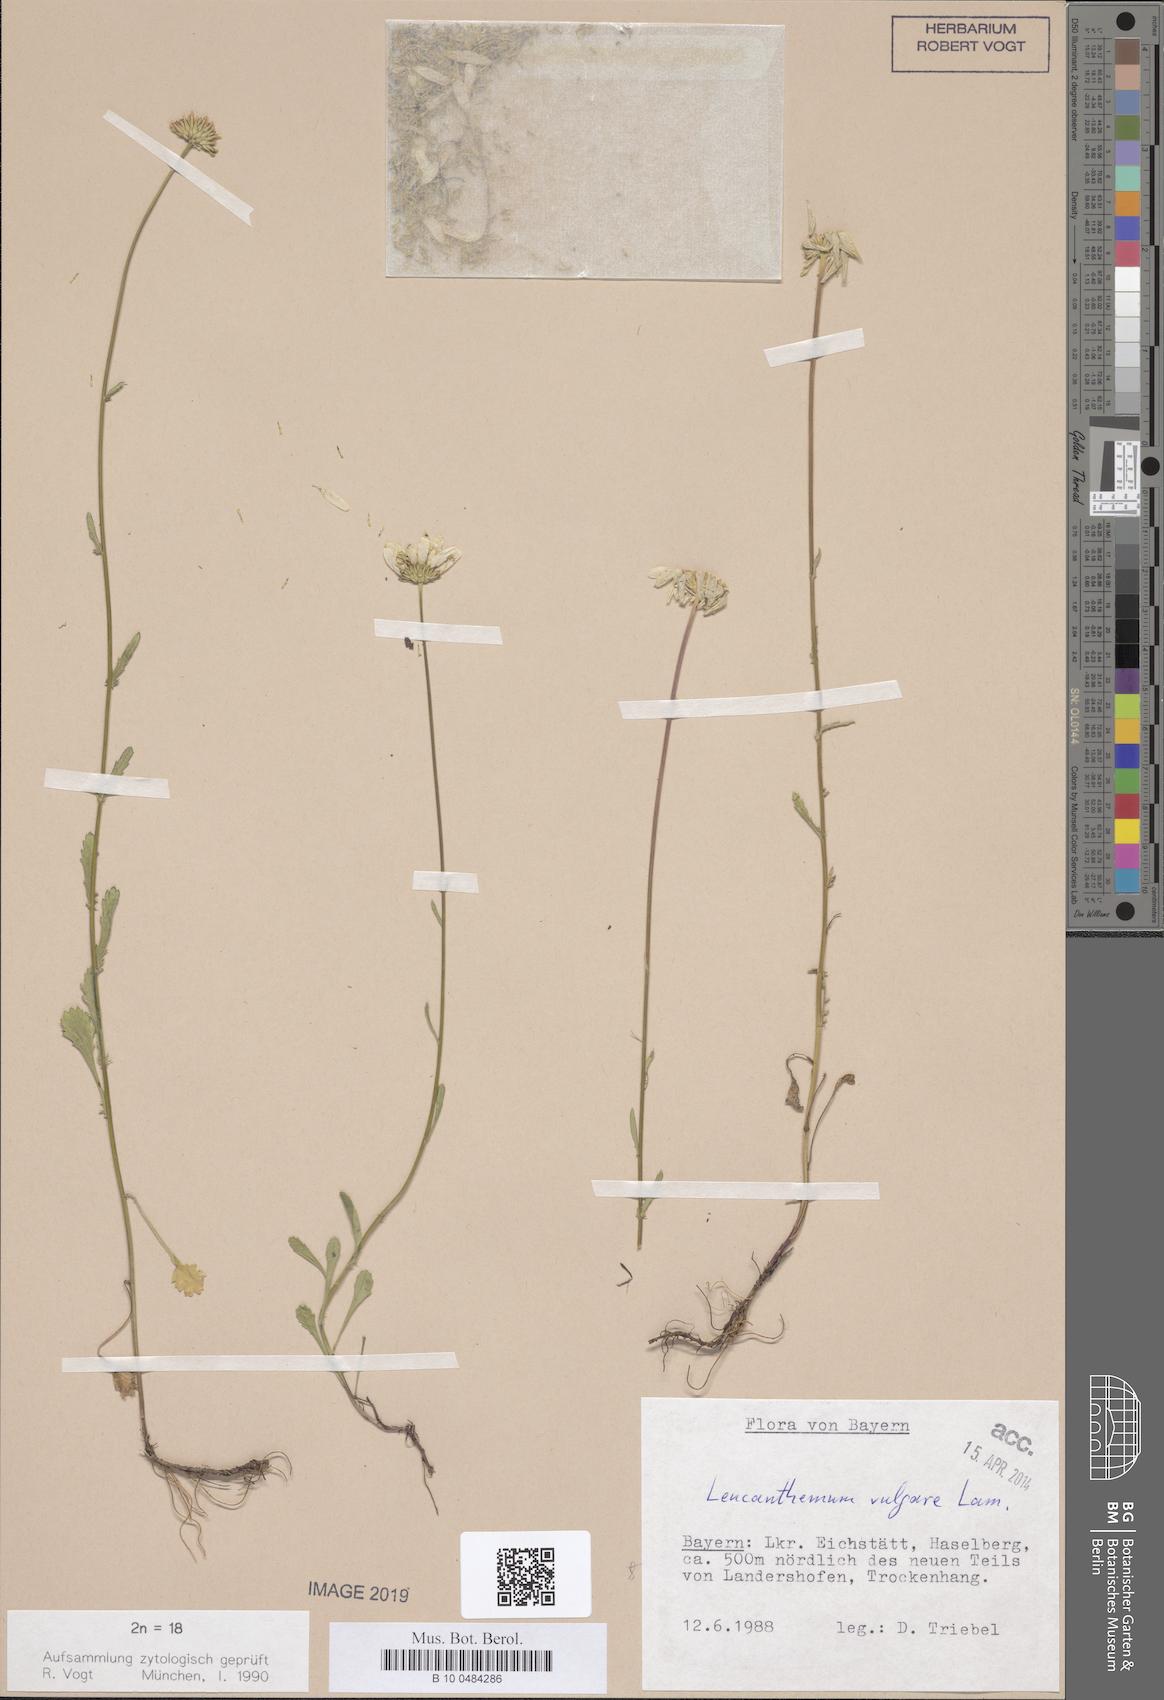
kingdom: Plantae
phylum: Tracheophyta
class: Magnoliopsida
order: Asterales
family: Asteraceae
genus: Leucanthemum
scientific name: Leucanthemum vulgare
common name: Oxeye daisy
